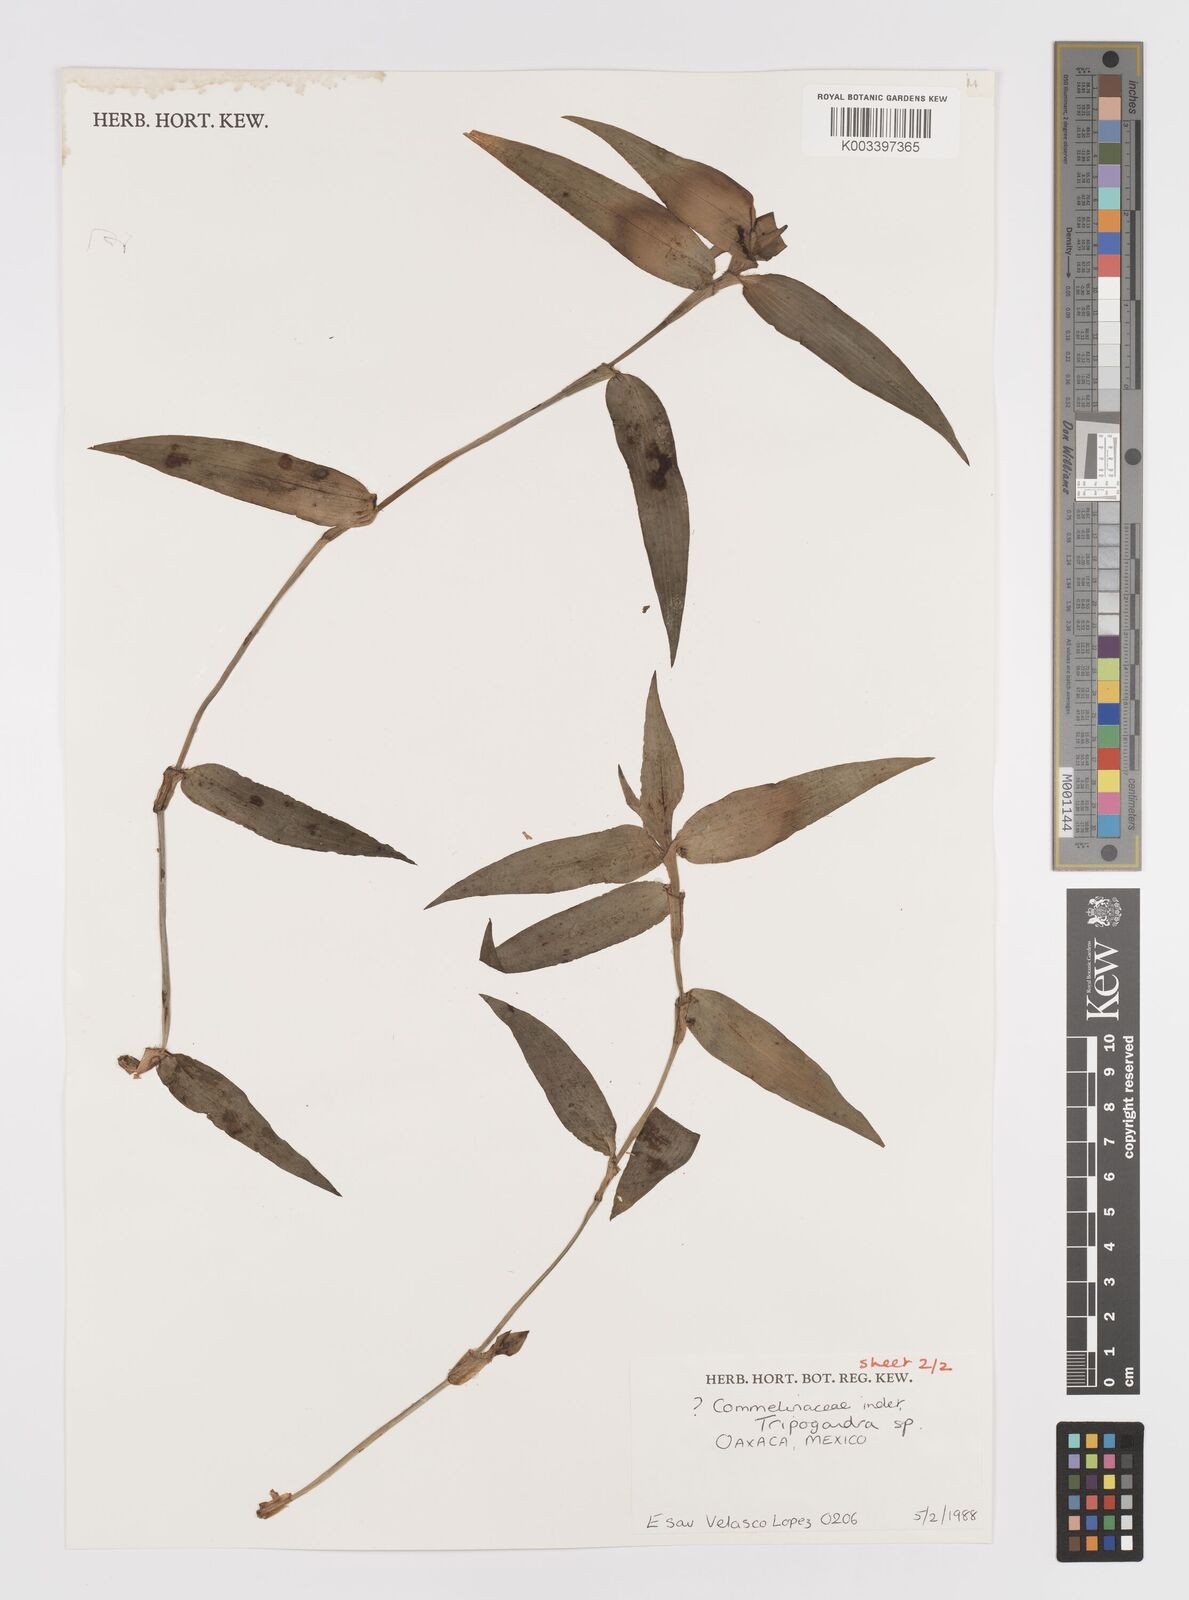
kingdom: Plantae
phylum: Tracheophyta
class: Liliopsida
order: Commelinales
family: Commelinaceae
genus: Callisia
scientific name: Callisia
